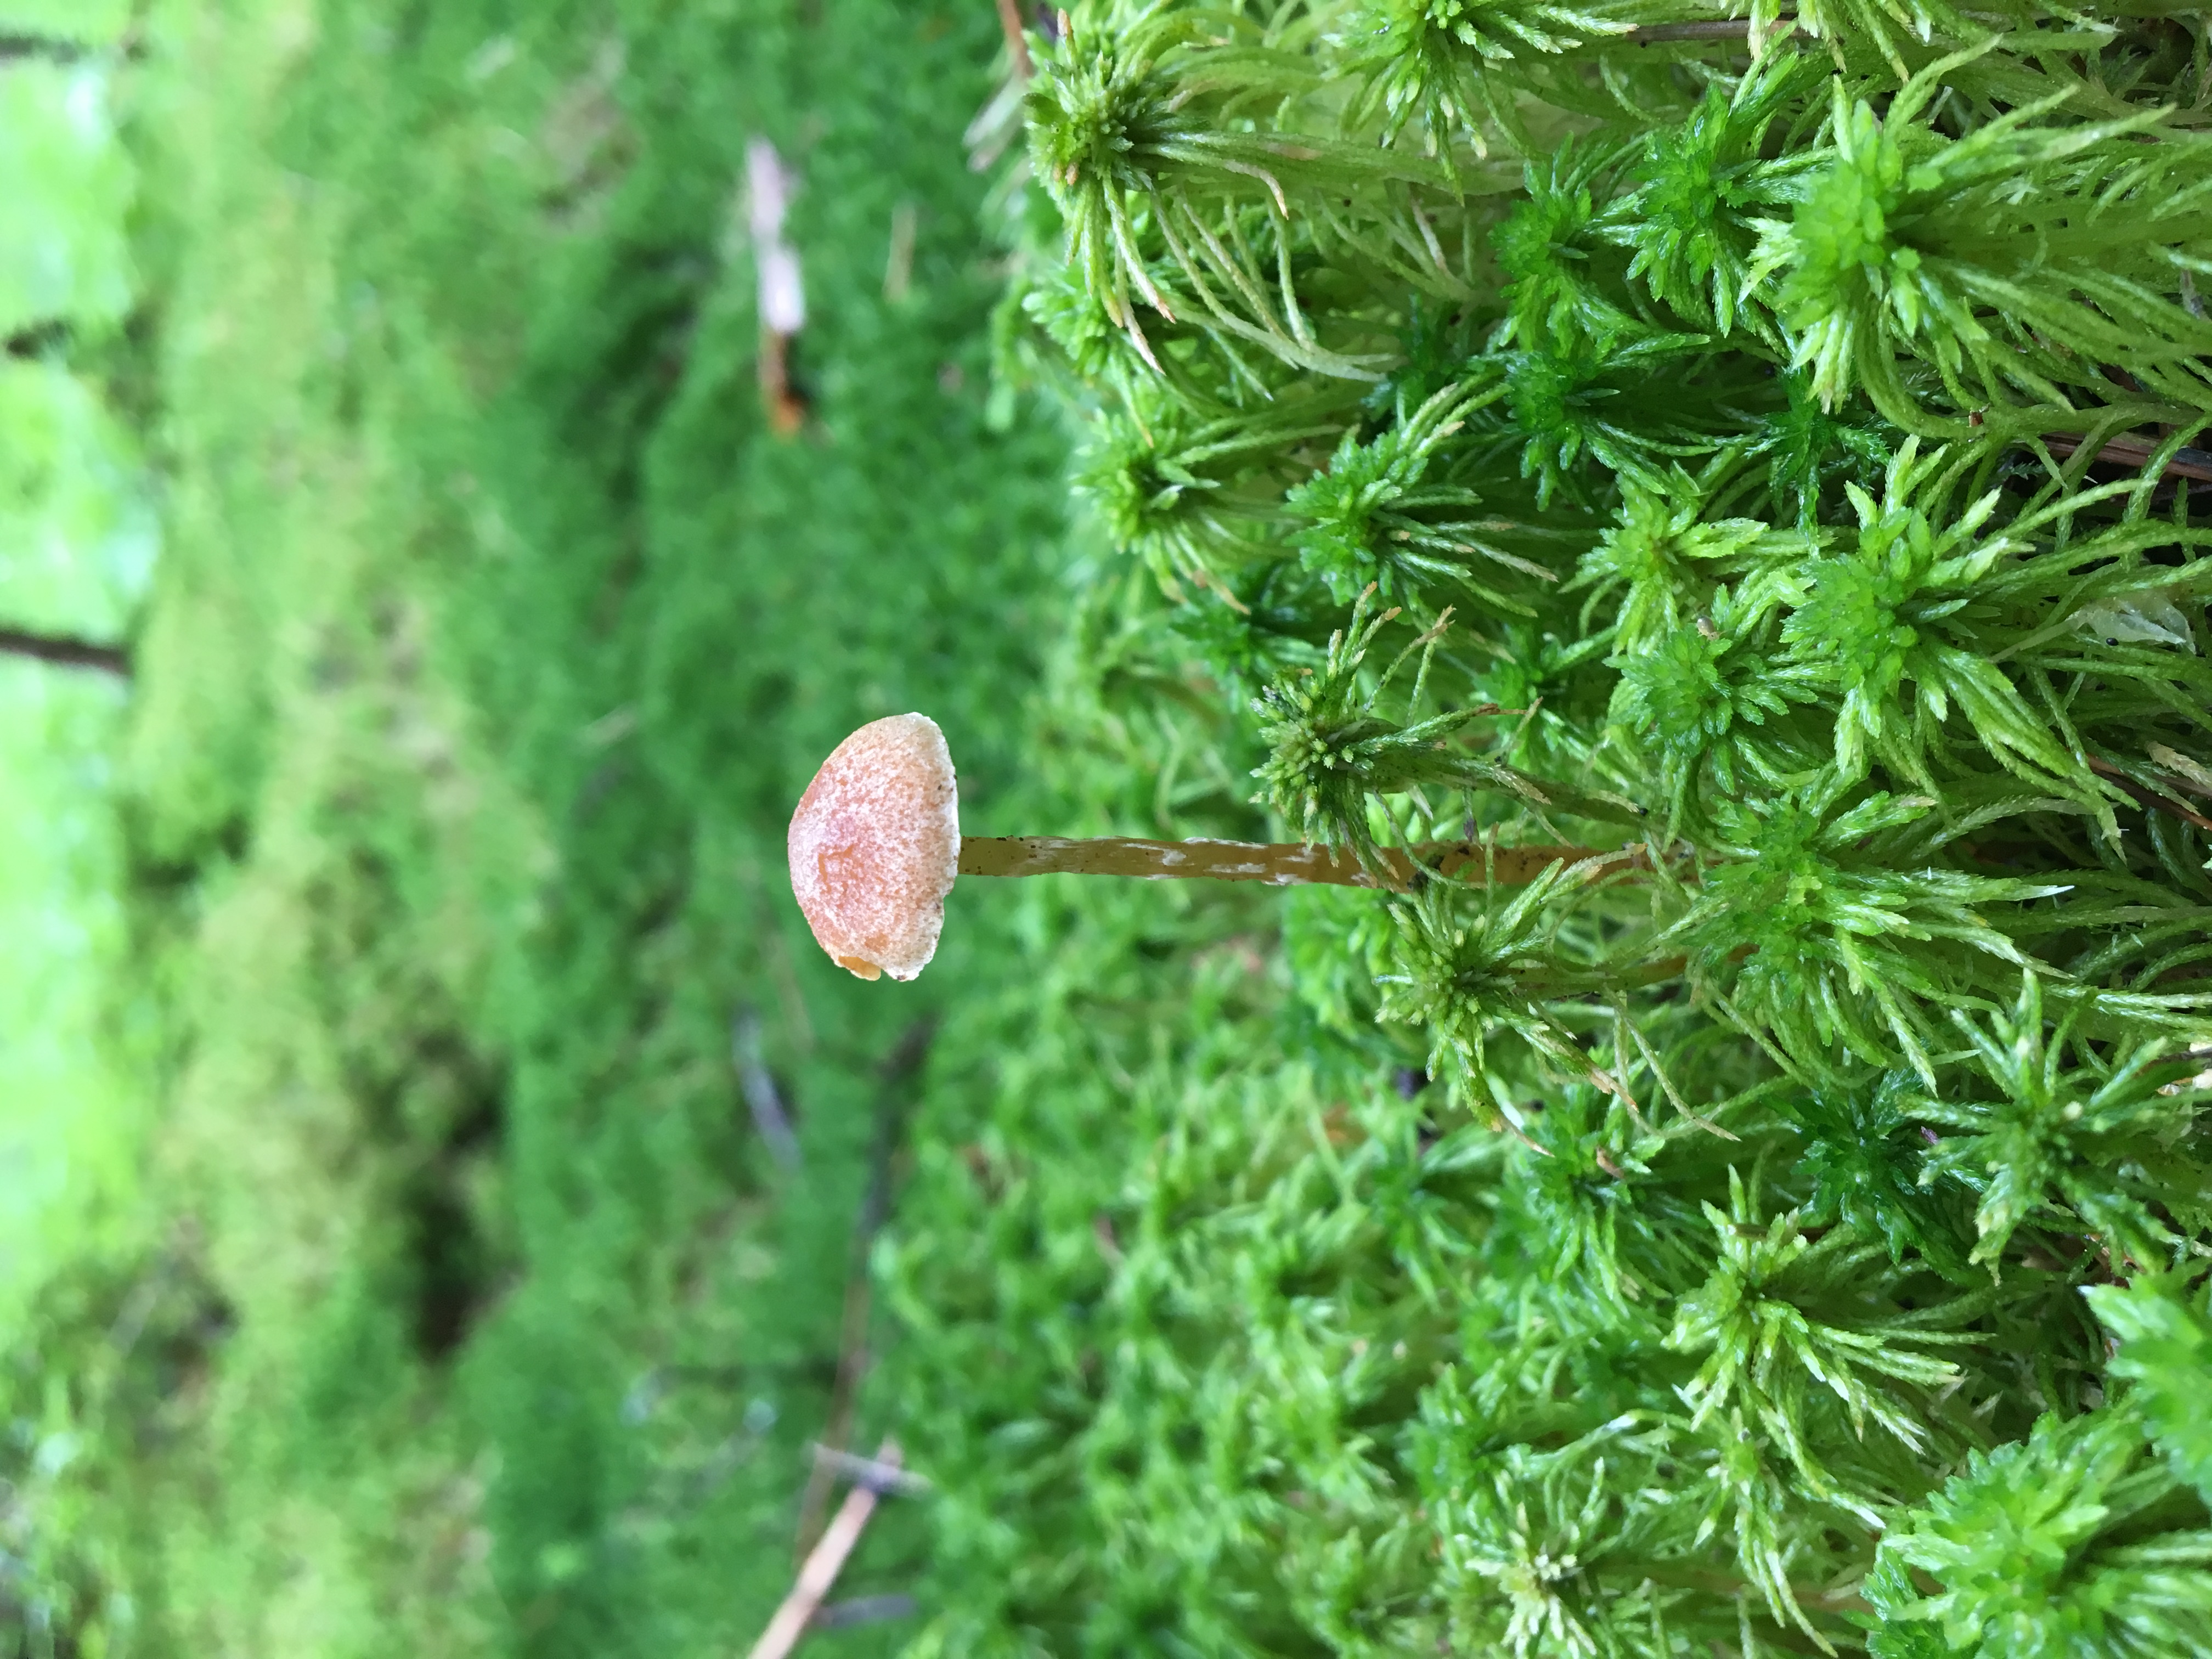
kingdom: Fungi
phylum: Basidiomycota
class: Agaricomycetes
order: Agaricales
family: Hymenogastraceae
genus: Galerina
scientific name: Galerina paludosa
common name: Bog bell
